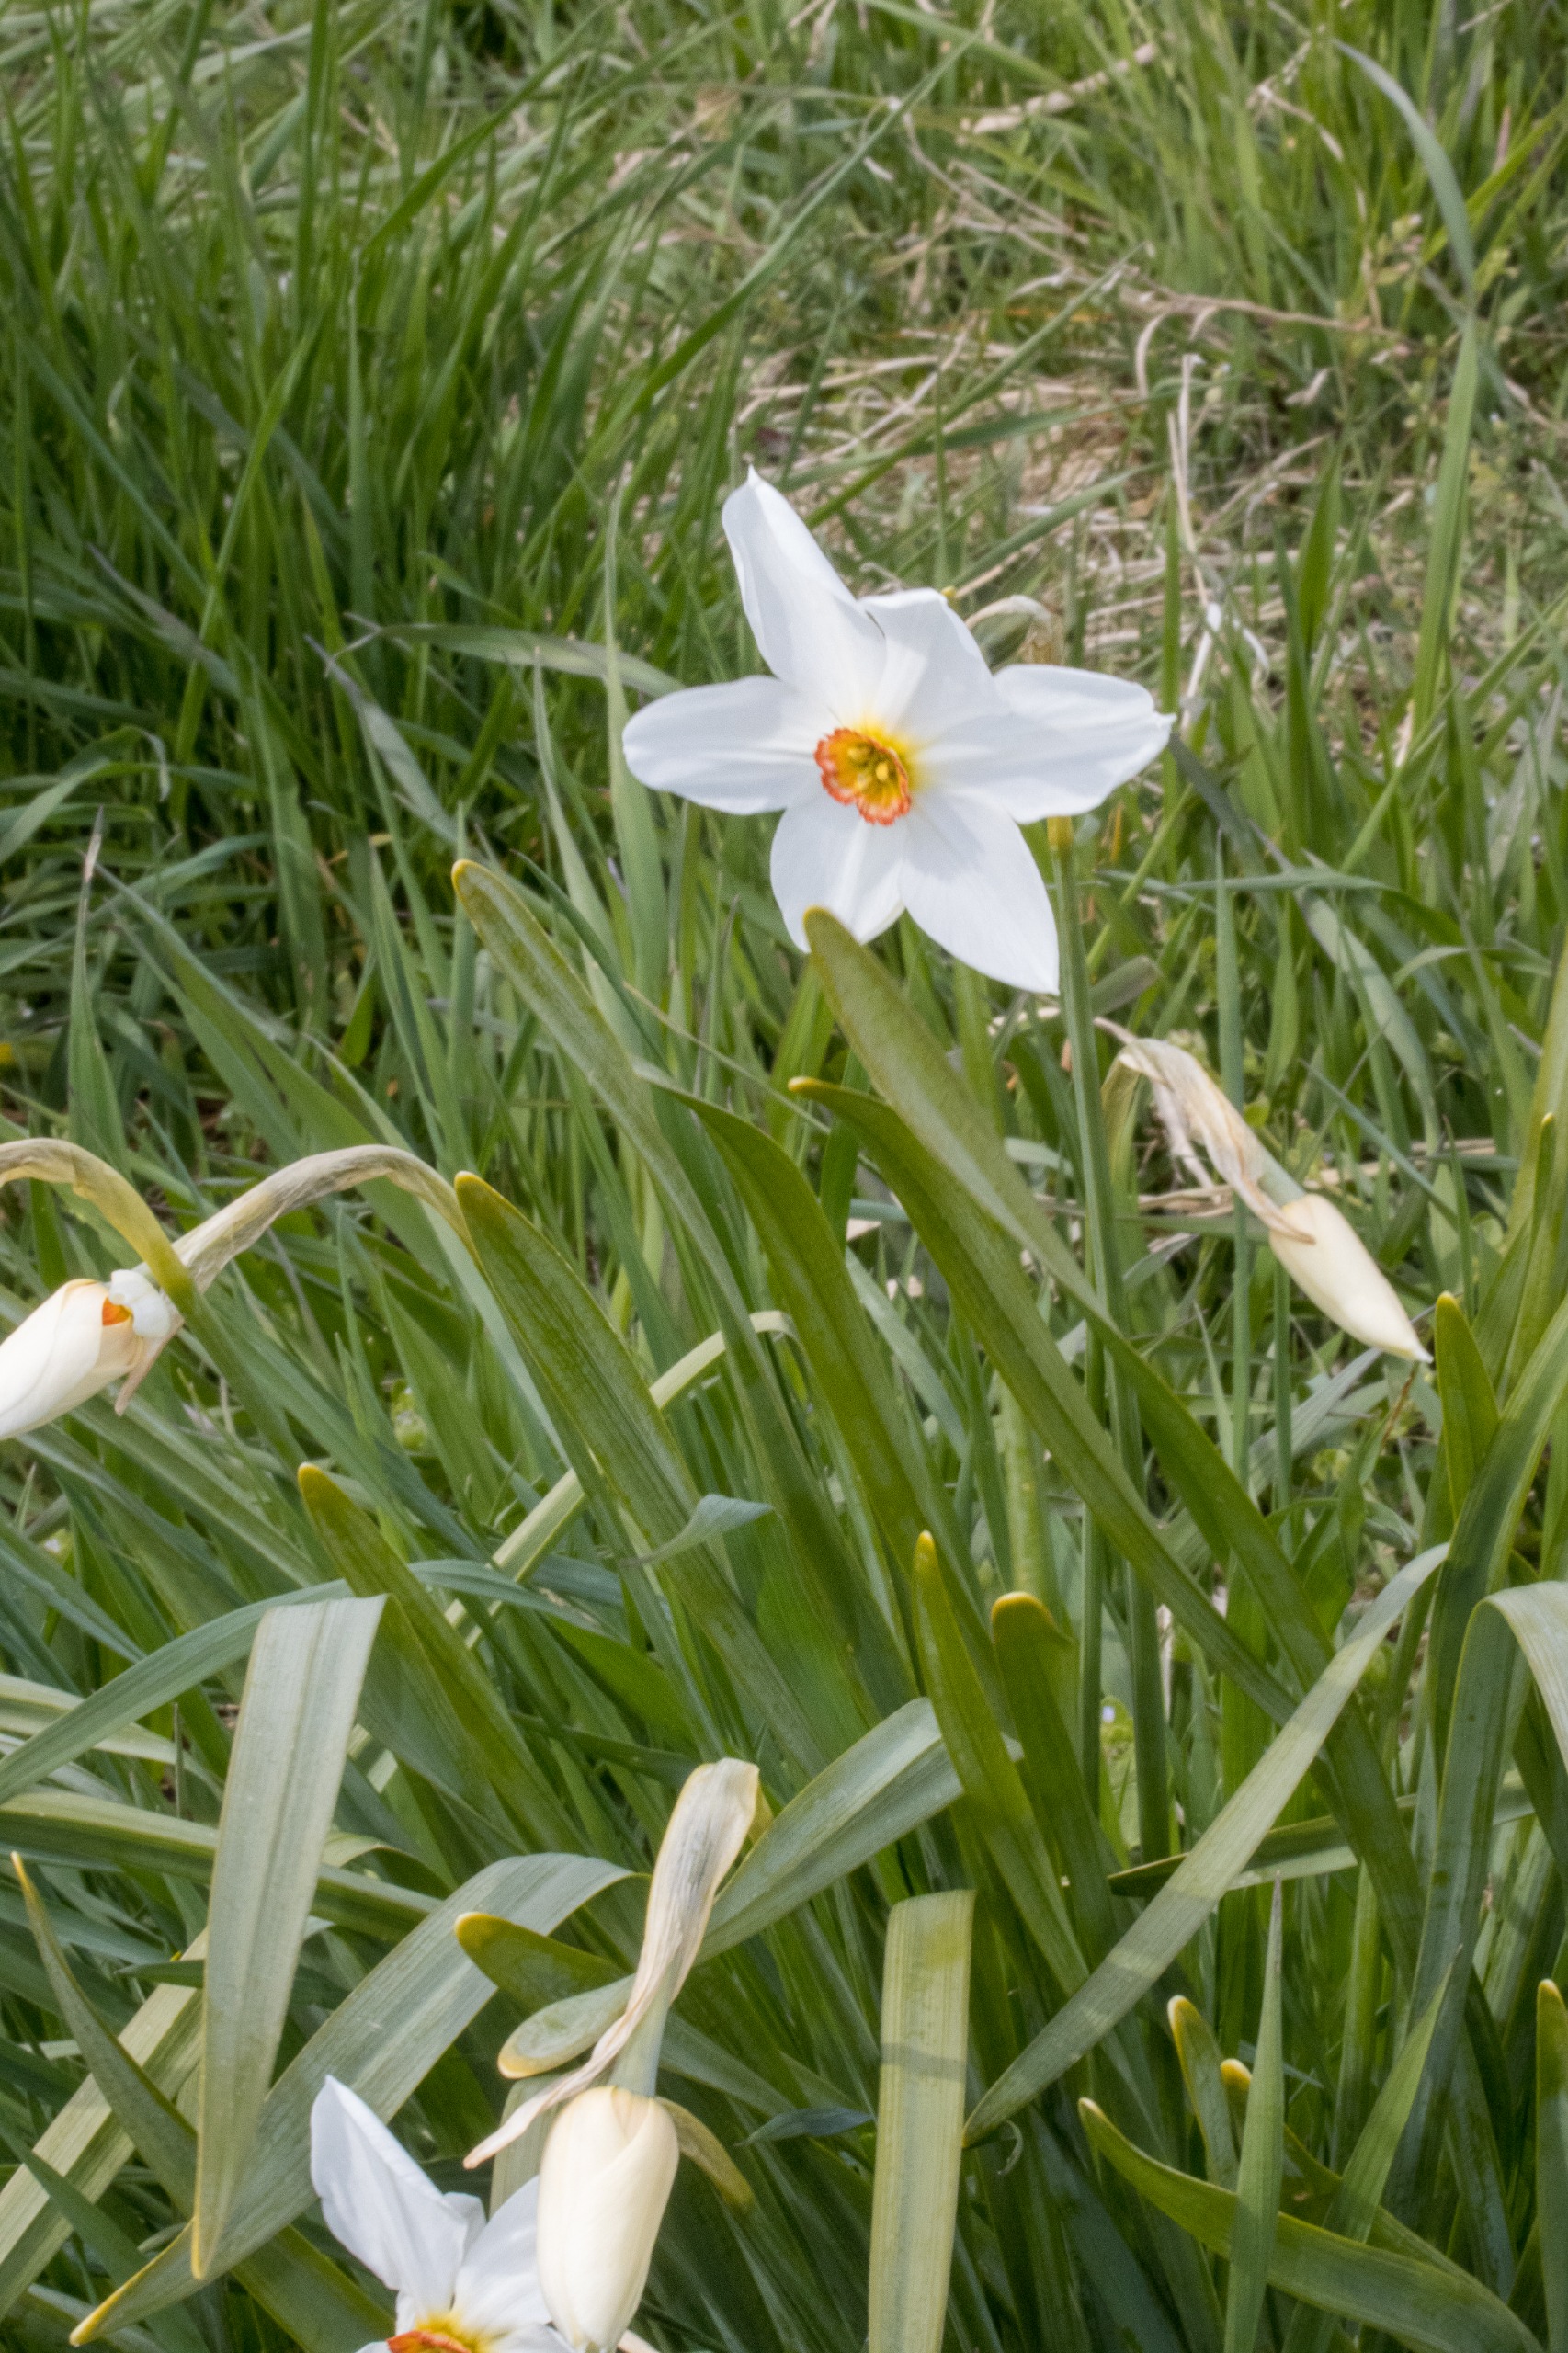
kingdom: Plantae
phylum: Tracheophyta
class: Liliopsida
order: Asparagales
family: Amaryllidaceae
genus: Narcissus
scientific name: Narcissus poeticus
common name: Pinselilje
